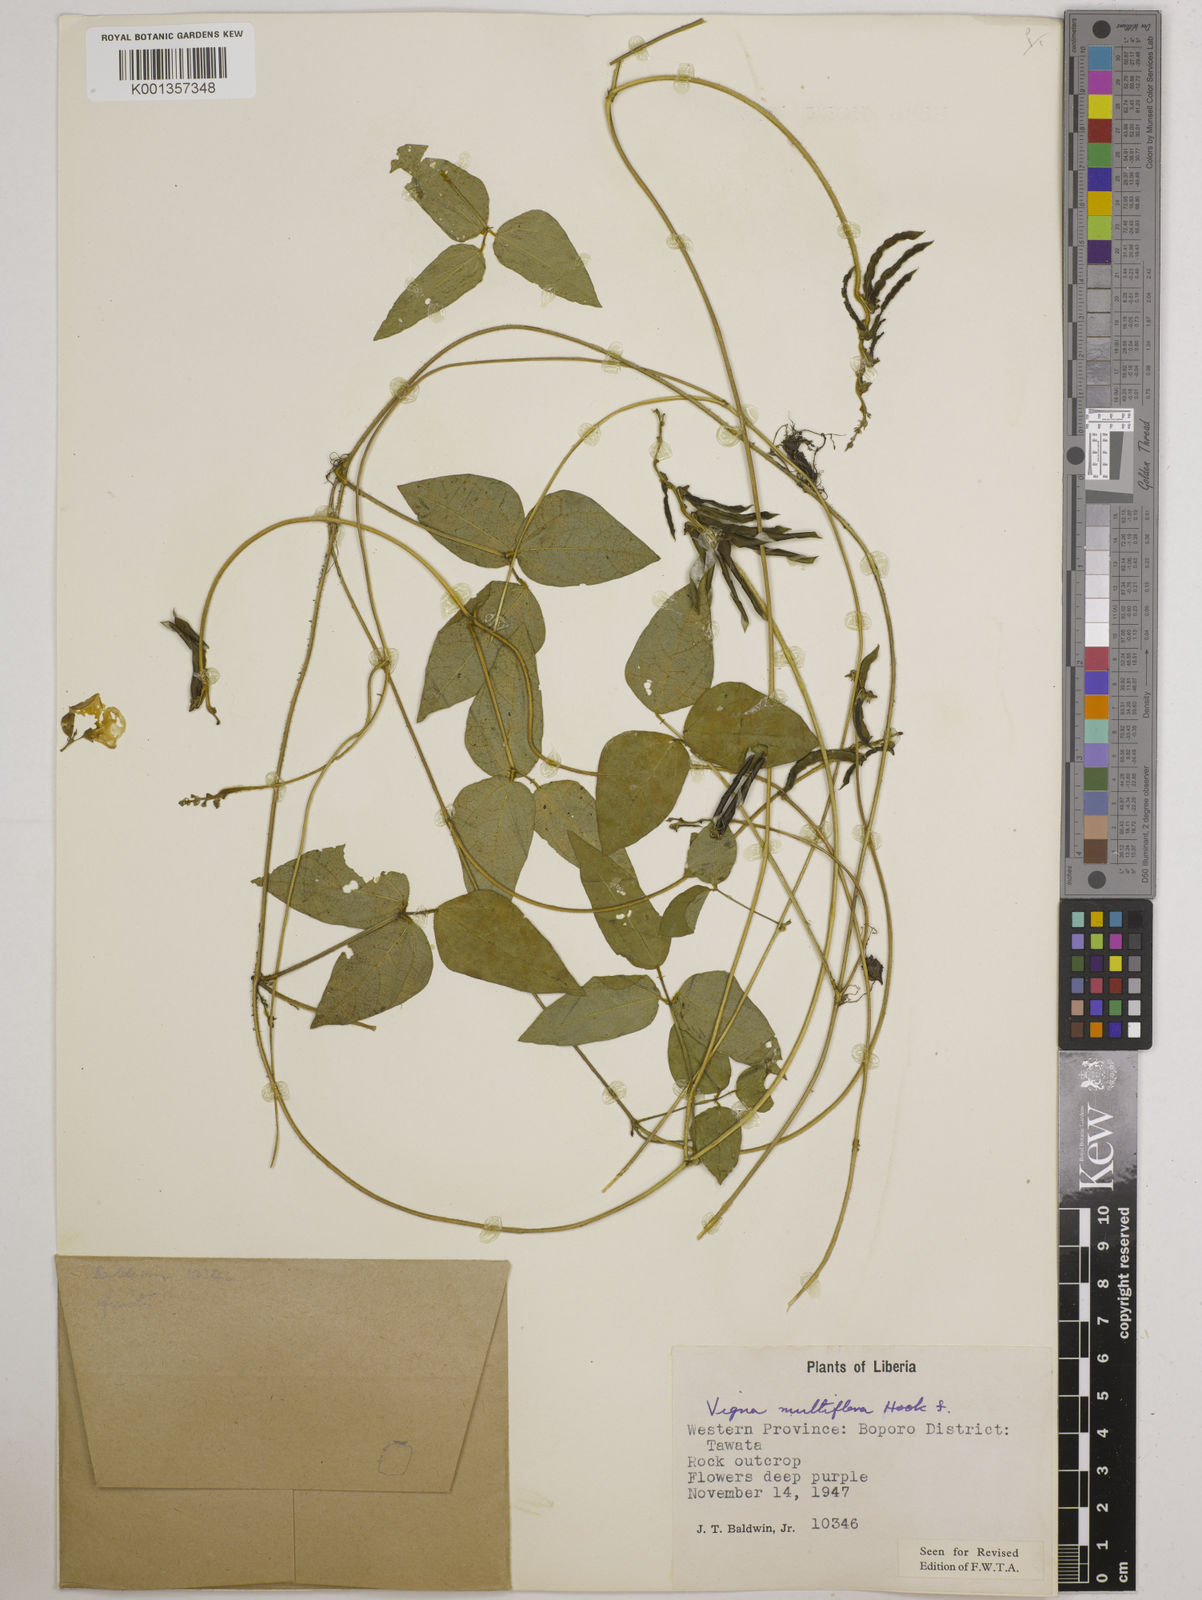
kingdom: Plantae
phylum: Tracheophyta
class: Magnoliopsida
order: Fabales
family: Fabaceae
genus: Vigna
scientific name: Vigna gracilis
